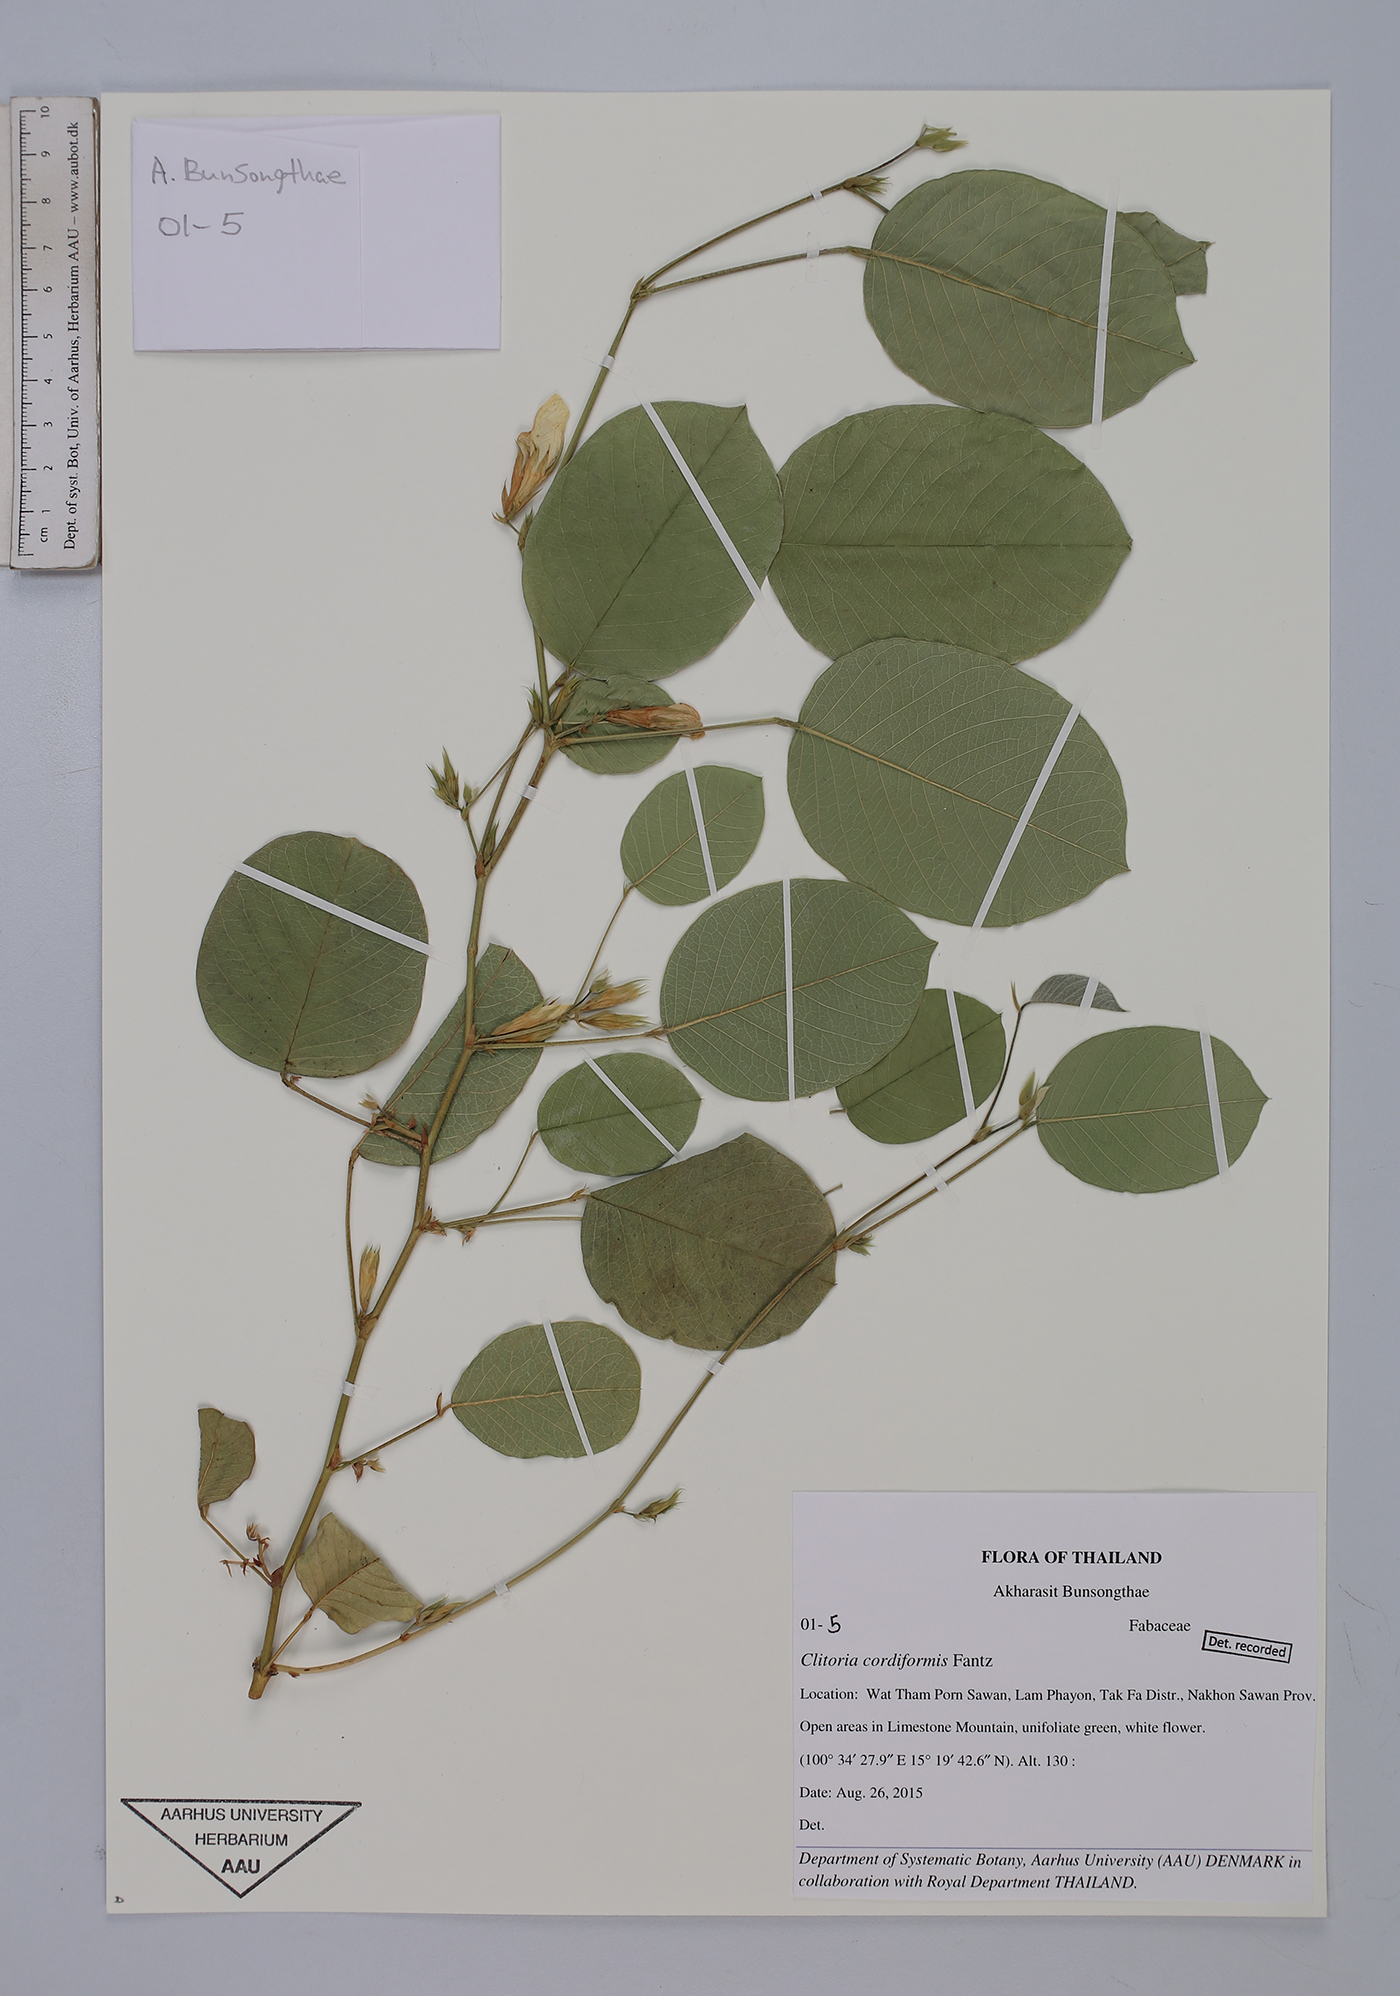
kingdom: Plantae
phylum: Tracheophyta
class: Magnoliopsida
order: Fabales
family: Fabaceae
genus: Clitoria
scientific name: Clitoria cordiformis
